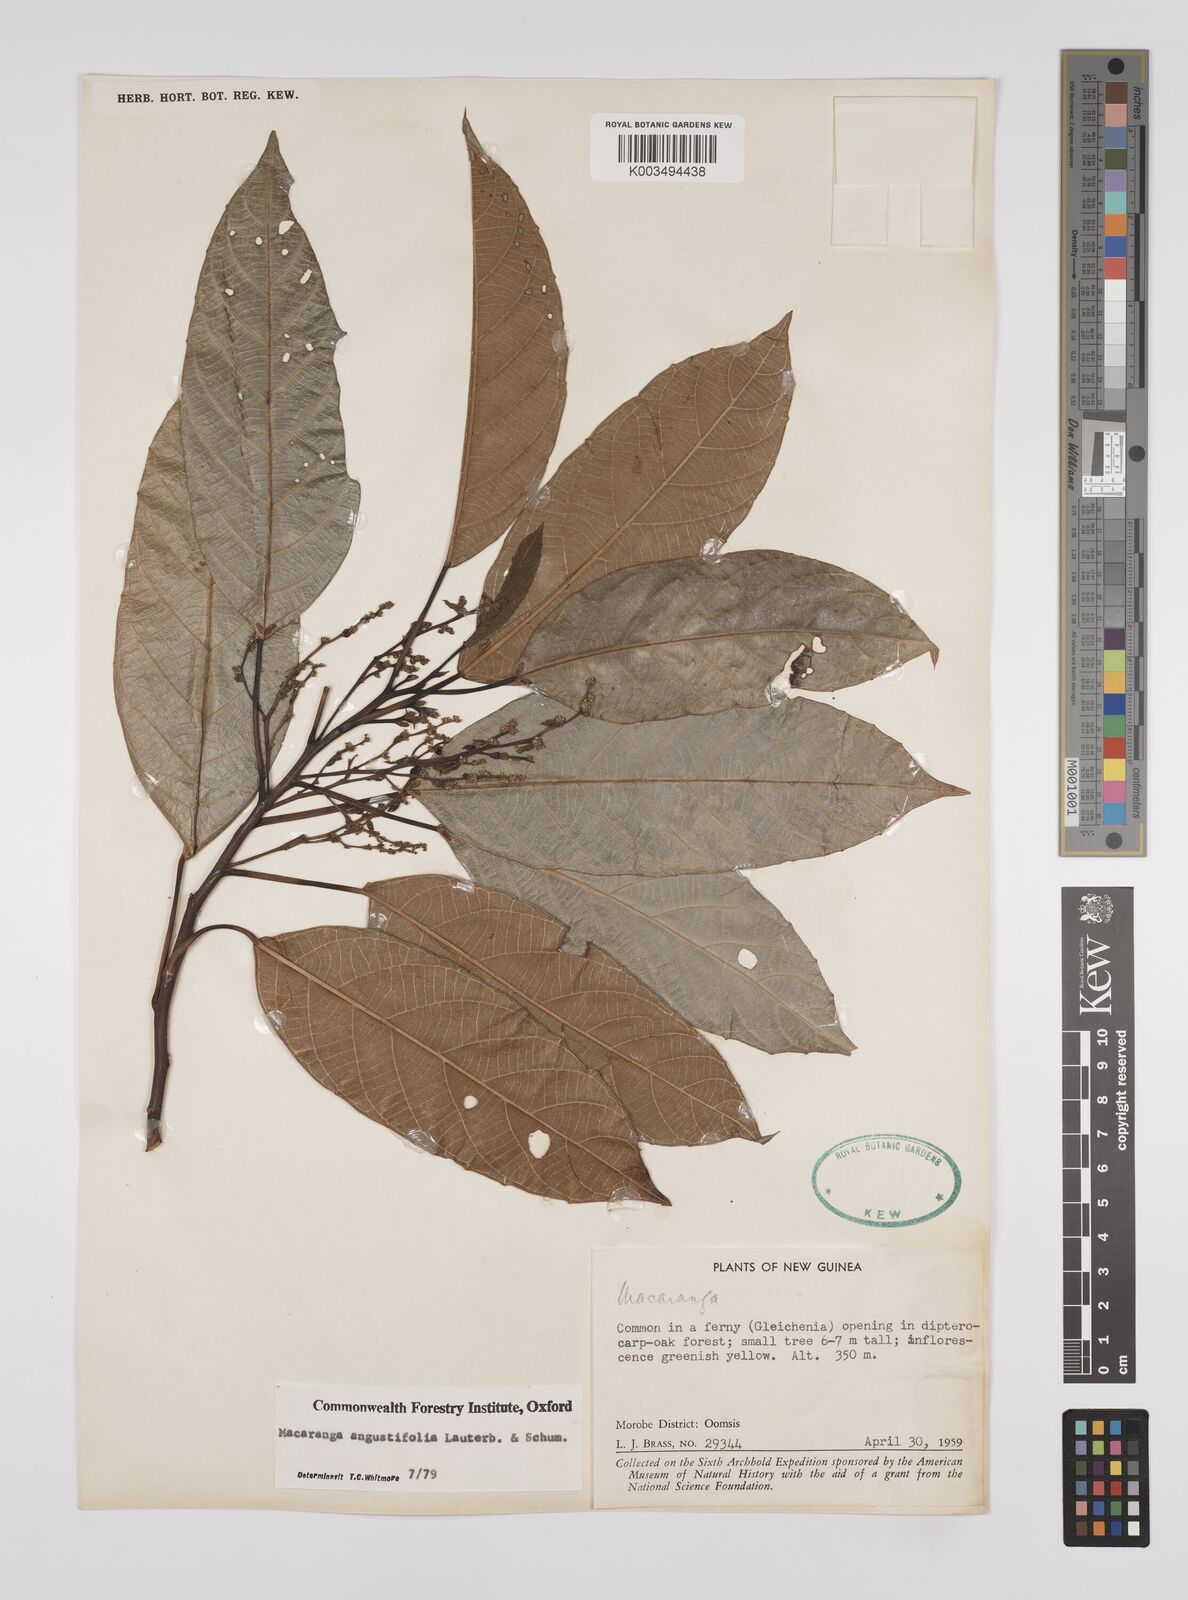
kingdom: Plantae
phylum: Tracheophyta
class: Magnoliopsida
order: Malpighiales
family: Euphorbiaceae
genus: Macaranga
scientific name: Macaranga angustifolia
